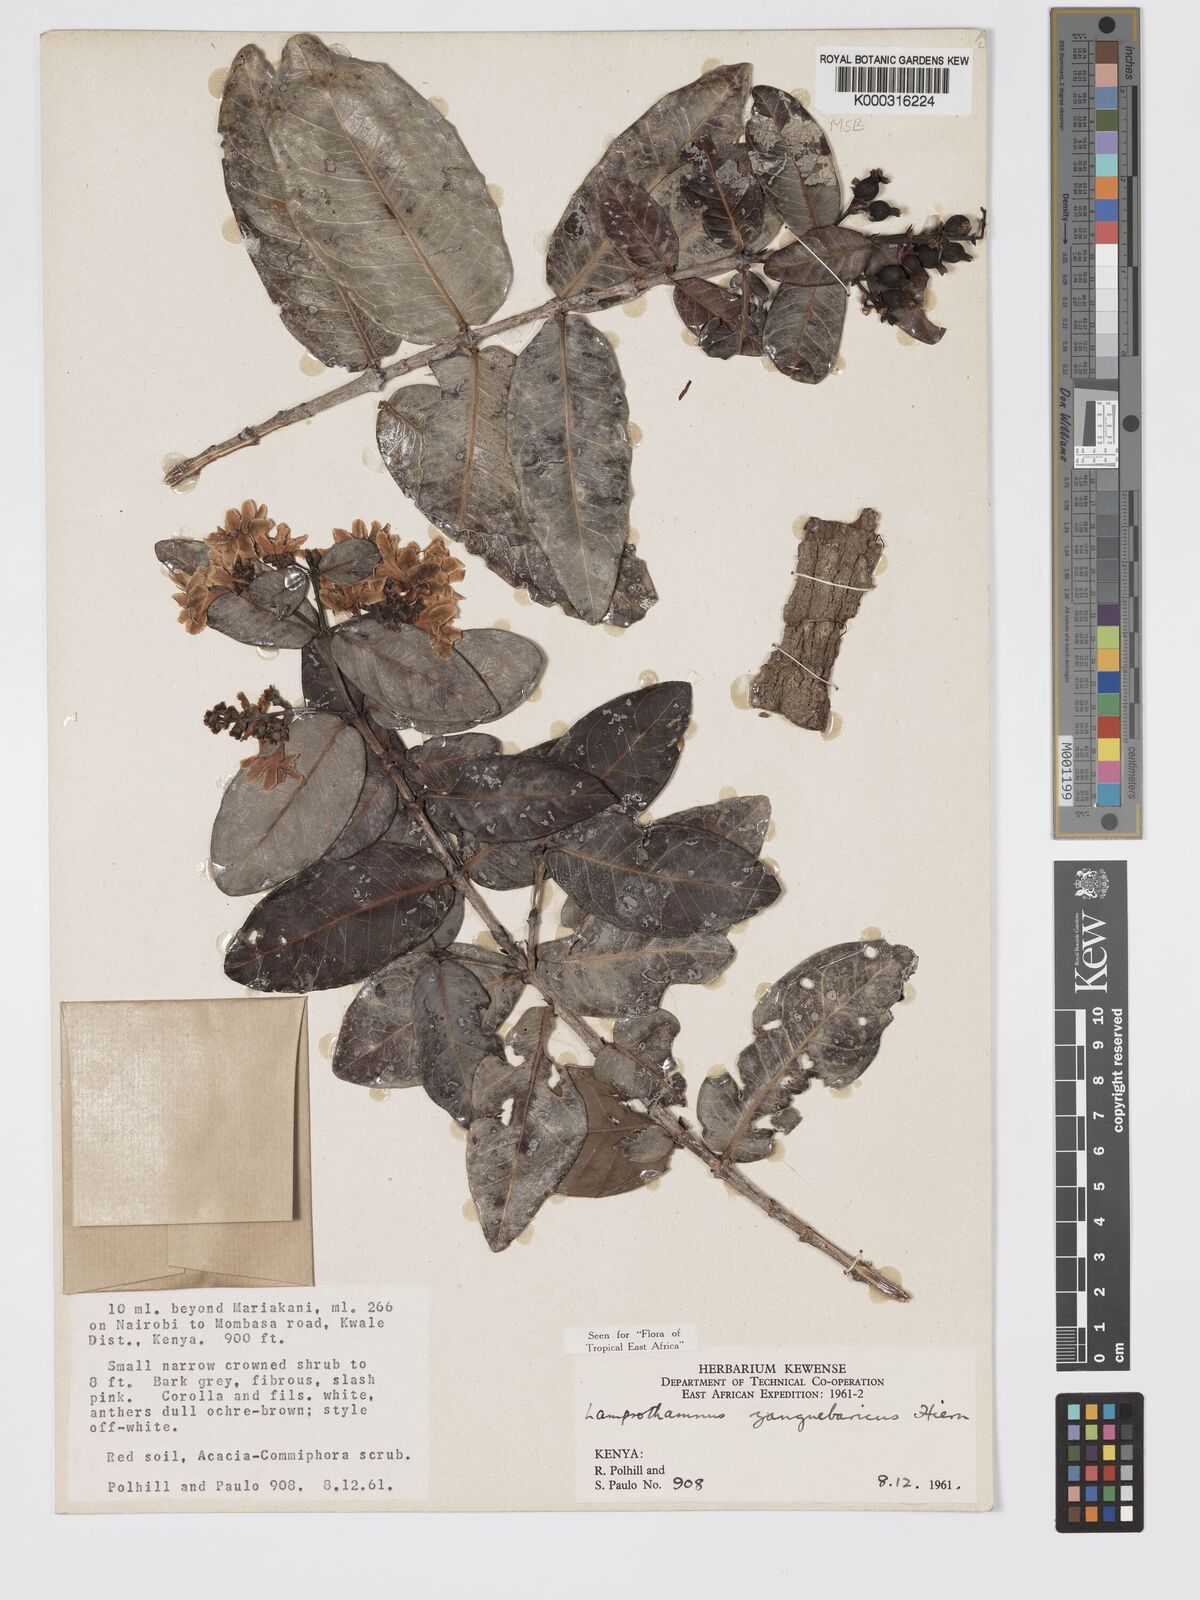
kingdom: Plantae
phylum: Tracheophyta
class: Magnoliopsida
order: Gentianales
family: Rubiaceae
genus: Lamprothamnus
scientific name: Lamprothamnus zanguebaricus
